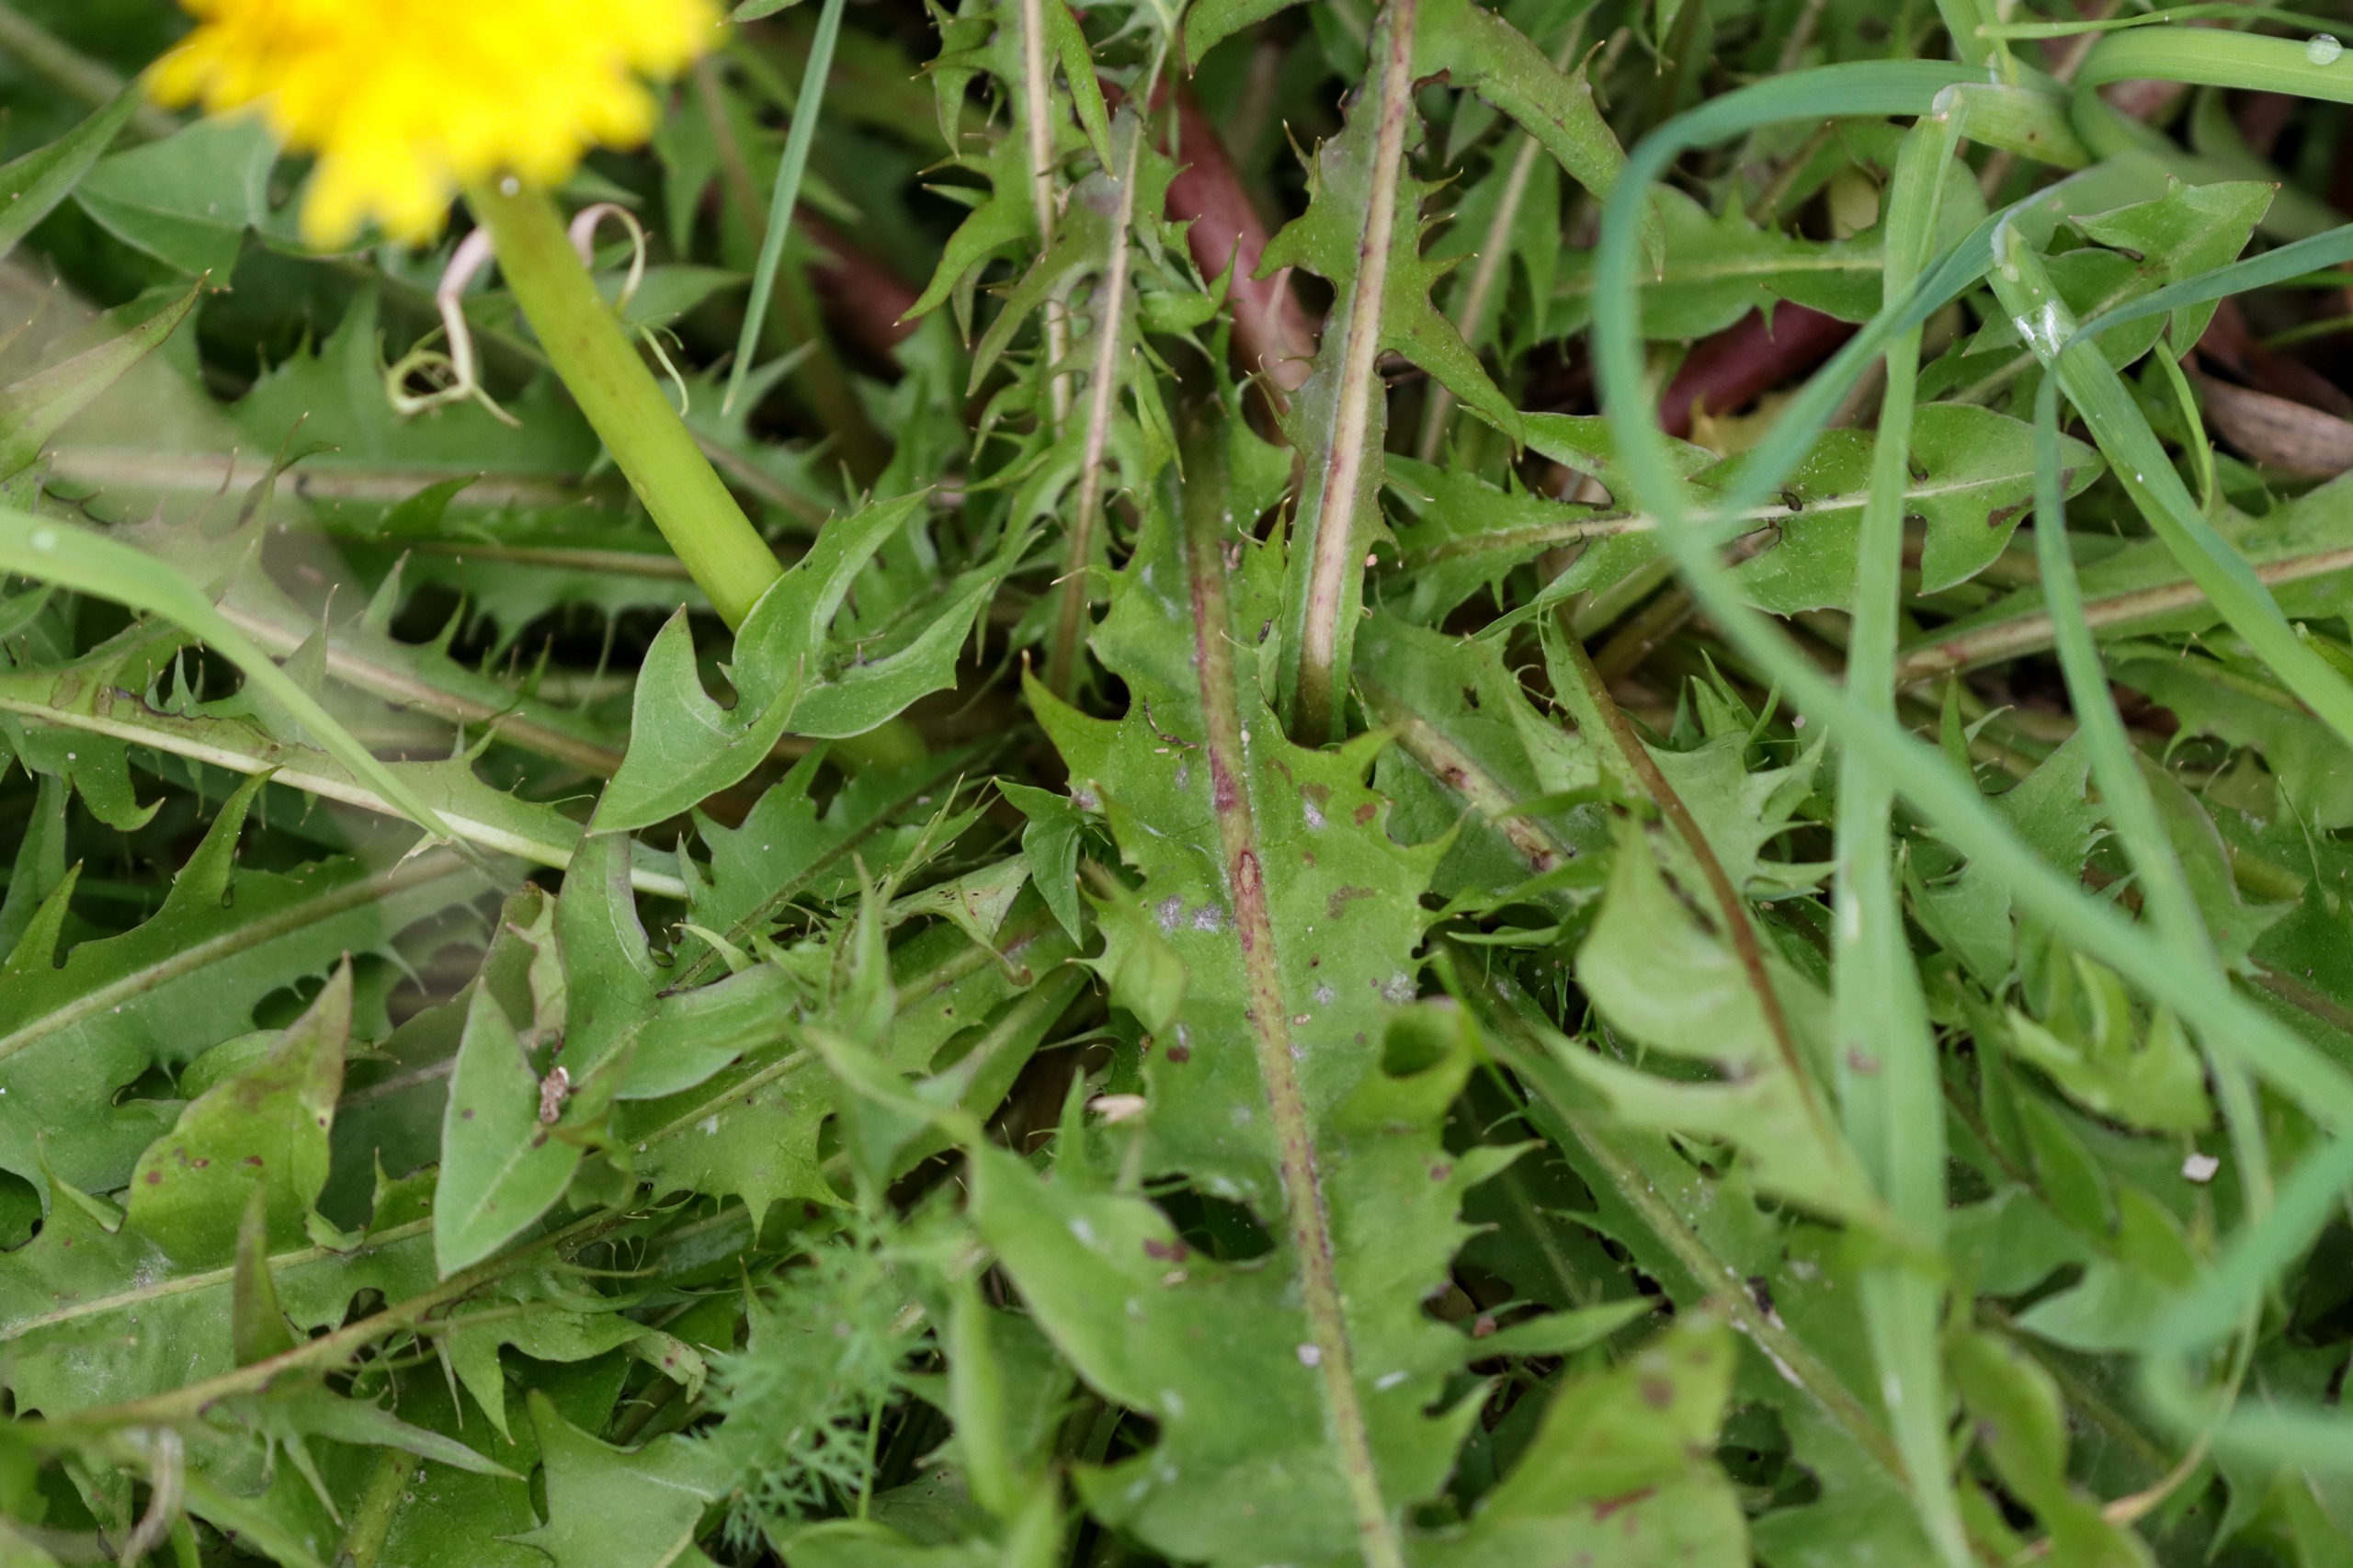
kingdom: Plantae
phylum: Tracheophyta
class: Magnoliopsida
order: Asterales
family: Asteraceae
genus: Taraxacum
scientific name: Taraxacum
